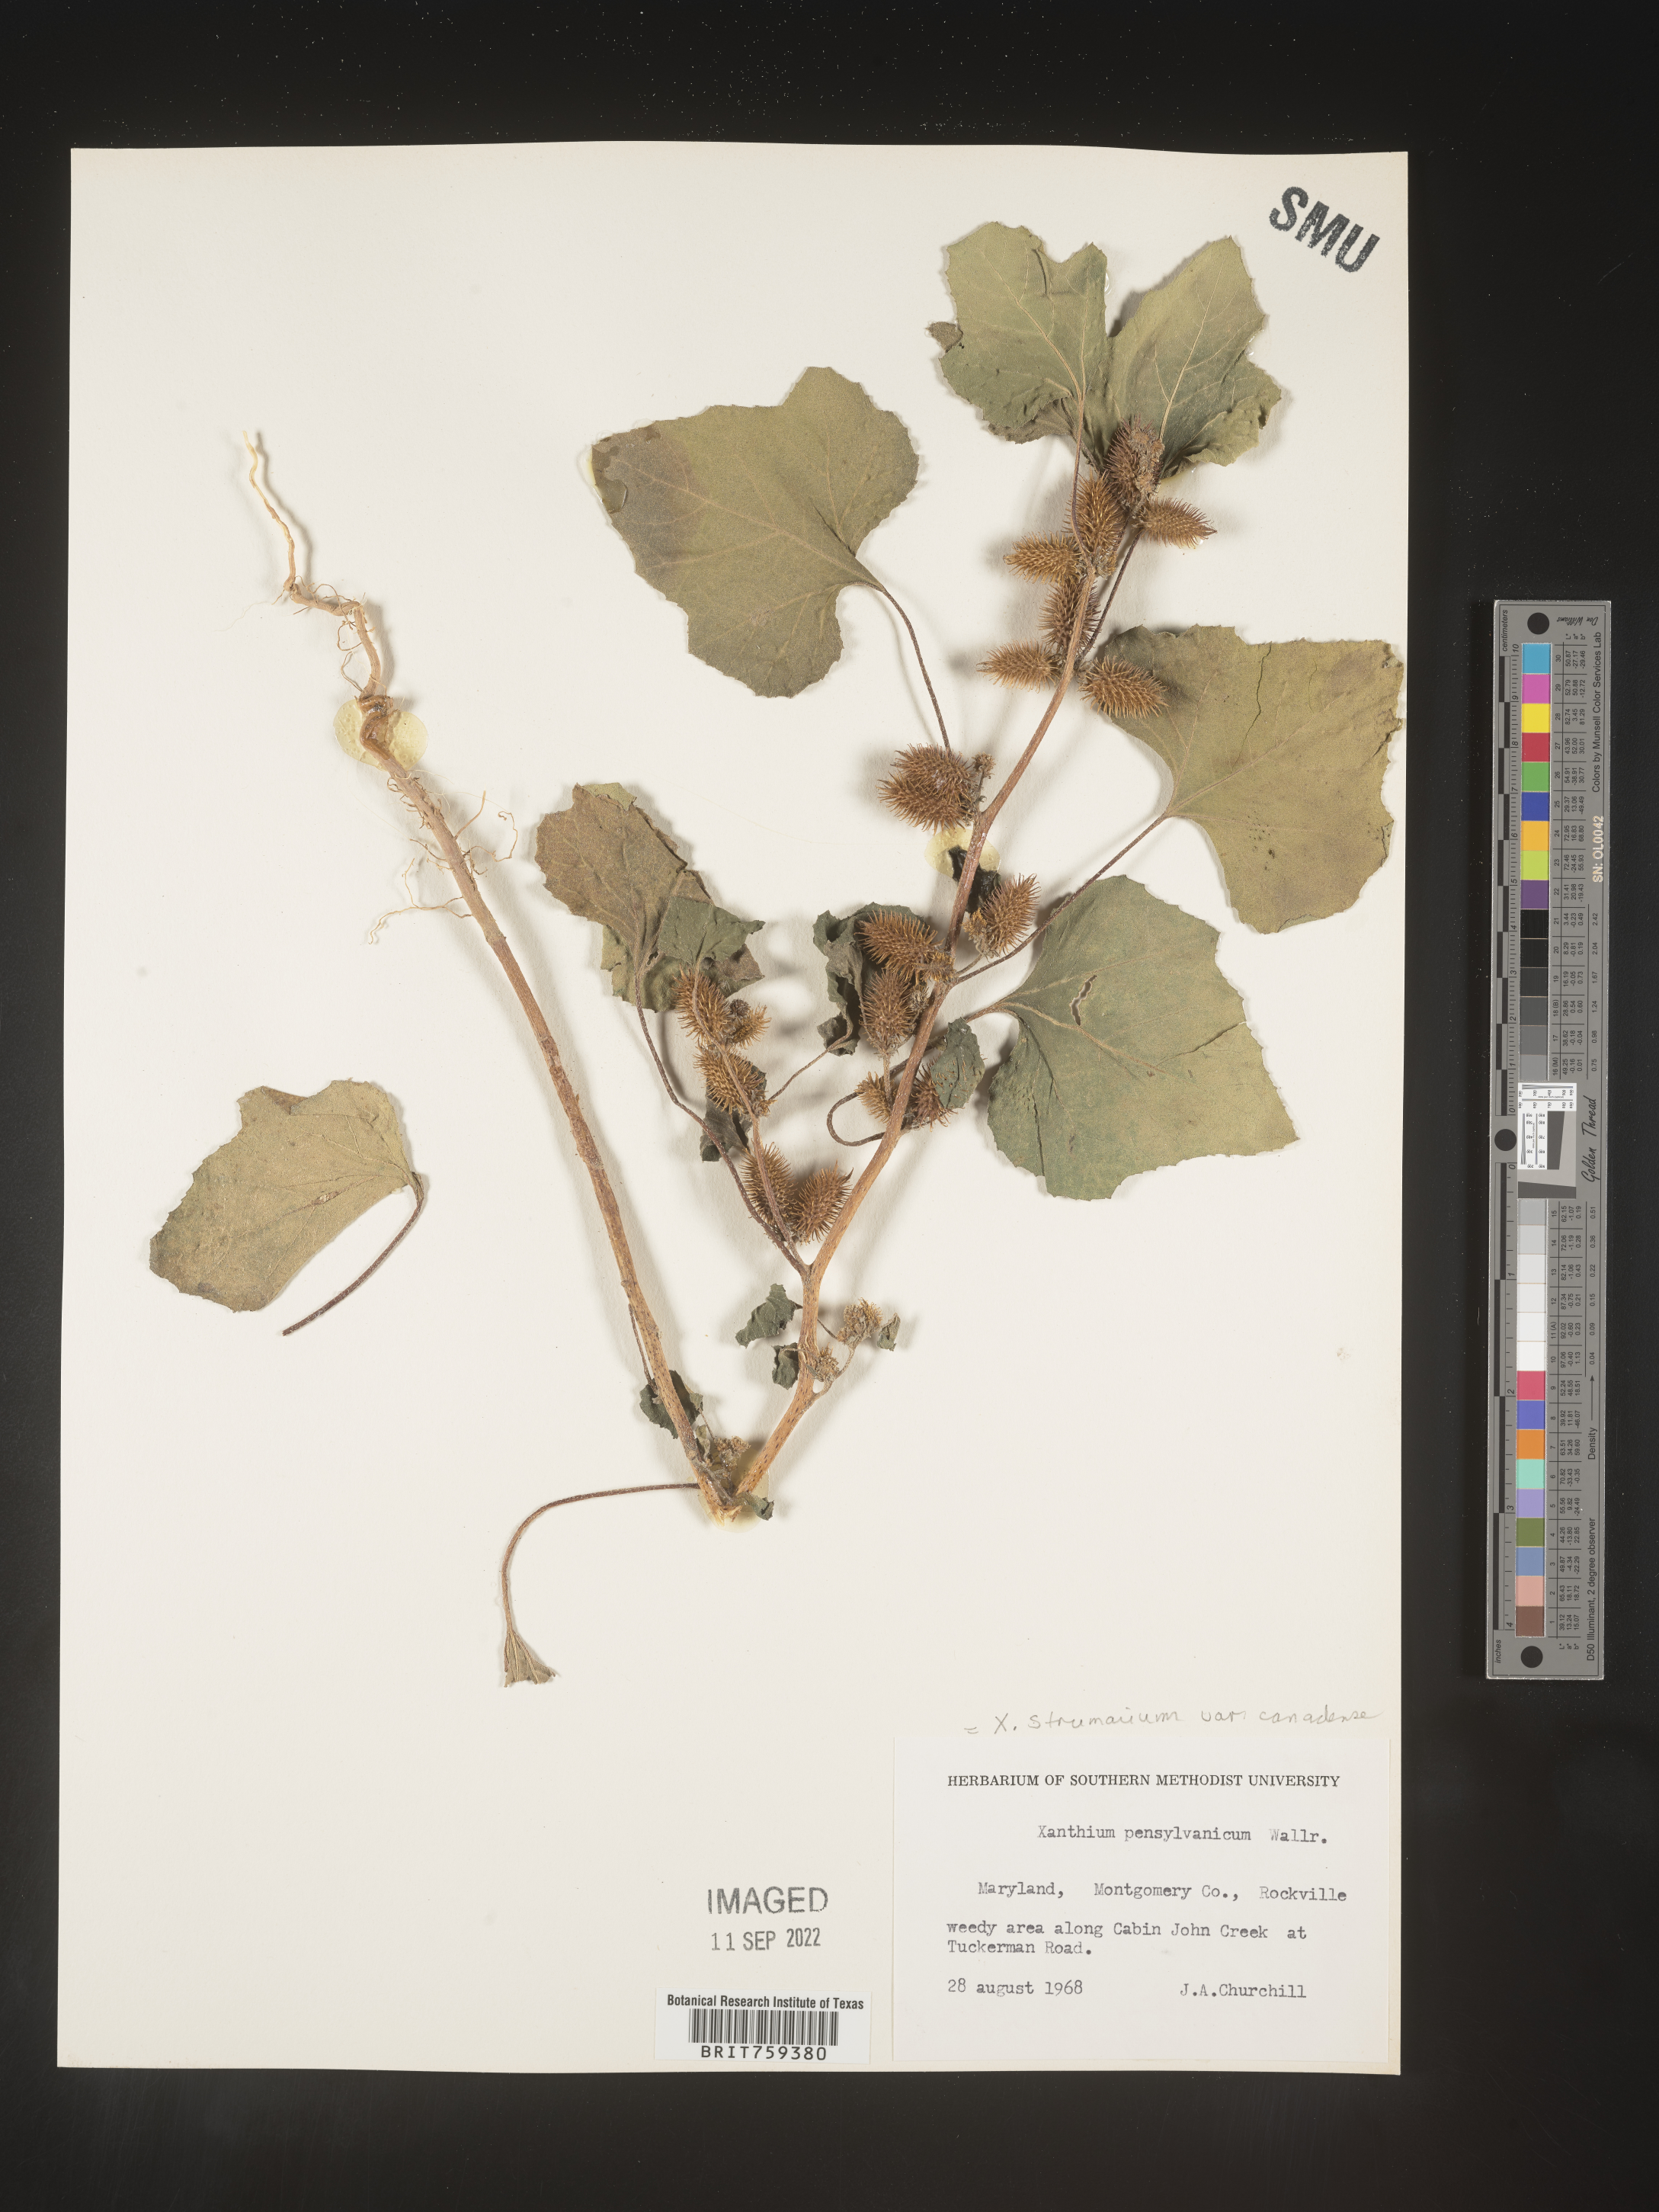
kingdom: Plantae
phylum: Tracheophyta
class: Magnoliopsida
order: Asterales
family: Asteraceae
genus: Xanthium
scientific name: Xanthium orientale
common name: Californian burr
